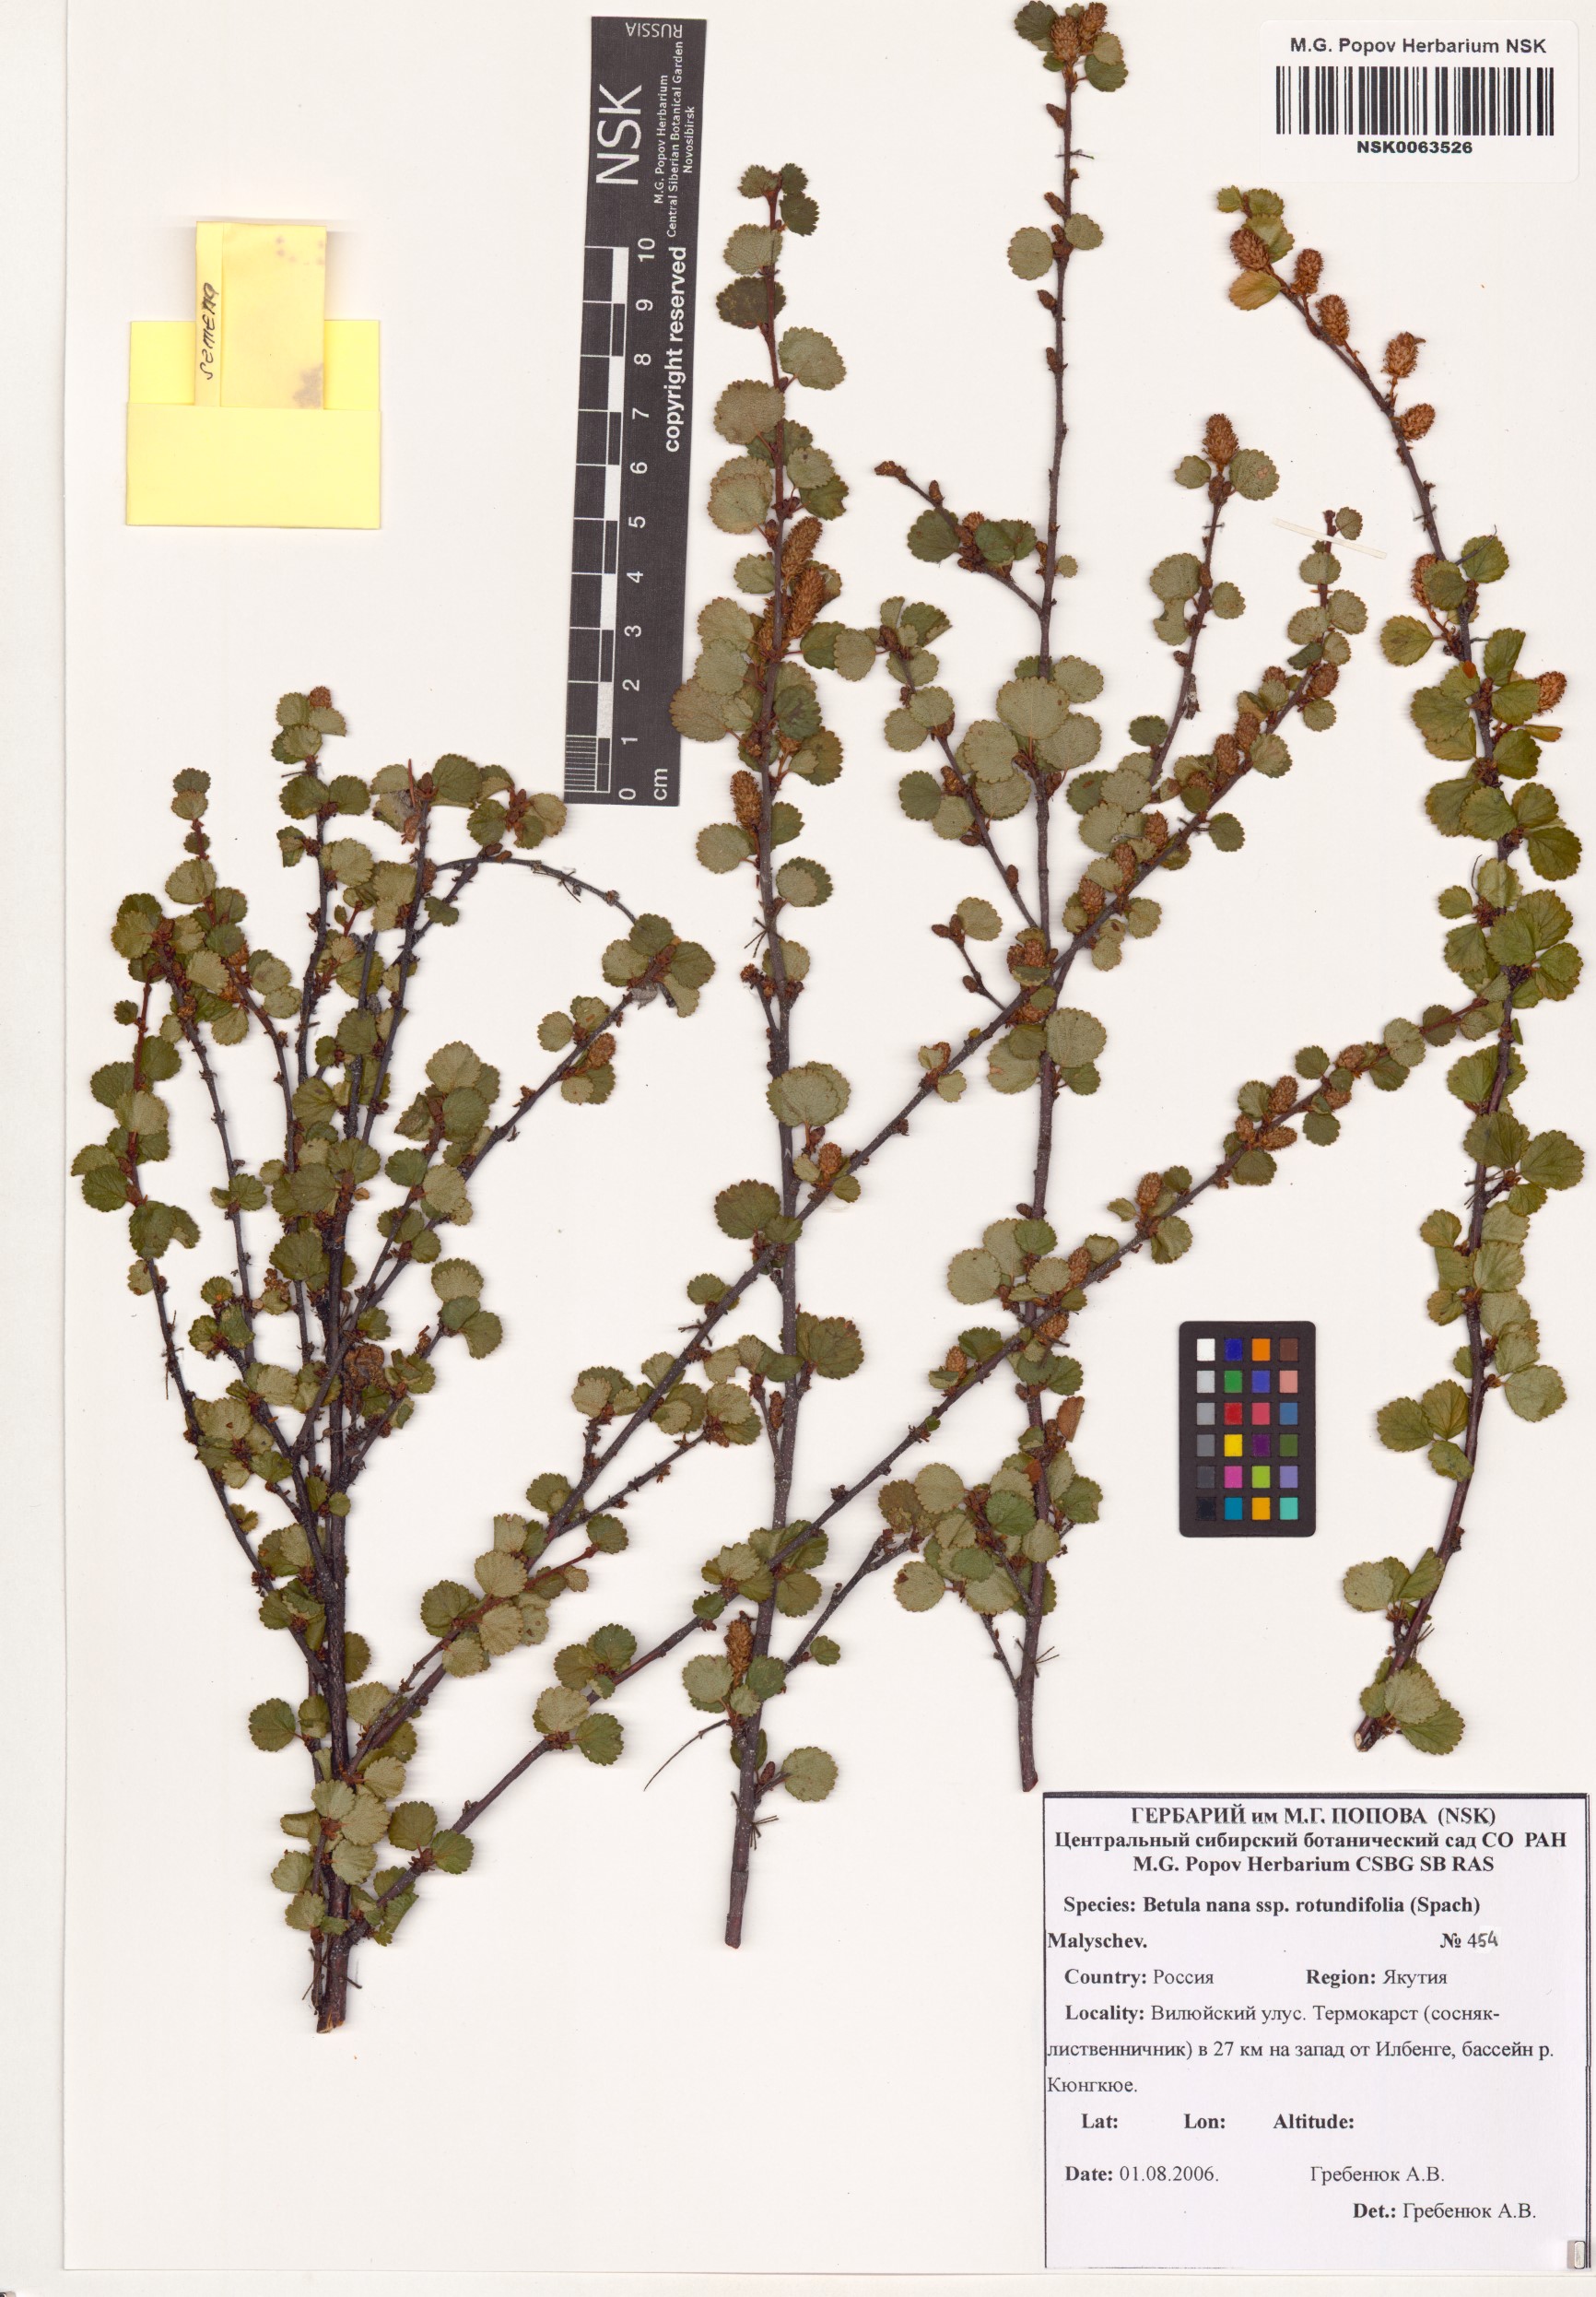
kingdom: Plantae
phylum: Tracheophyta
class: Magnoliopsida
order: Fagales
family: Betulaceae
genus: Betula
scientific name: Betula glandulosa
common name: Dwarf birch
